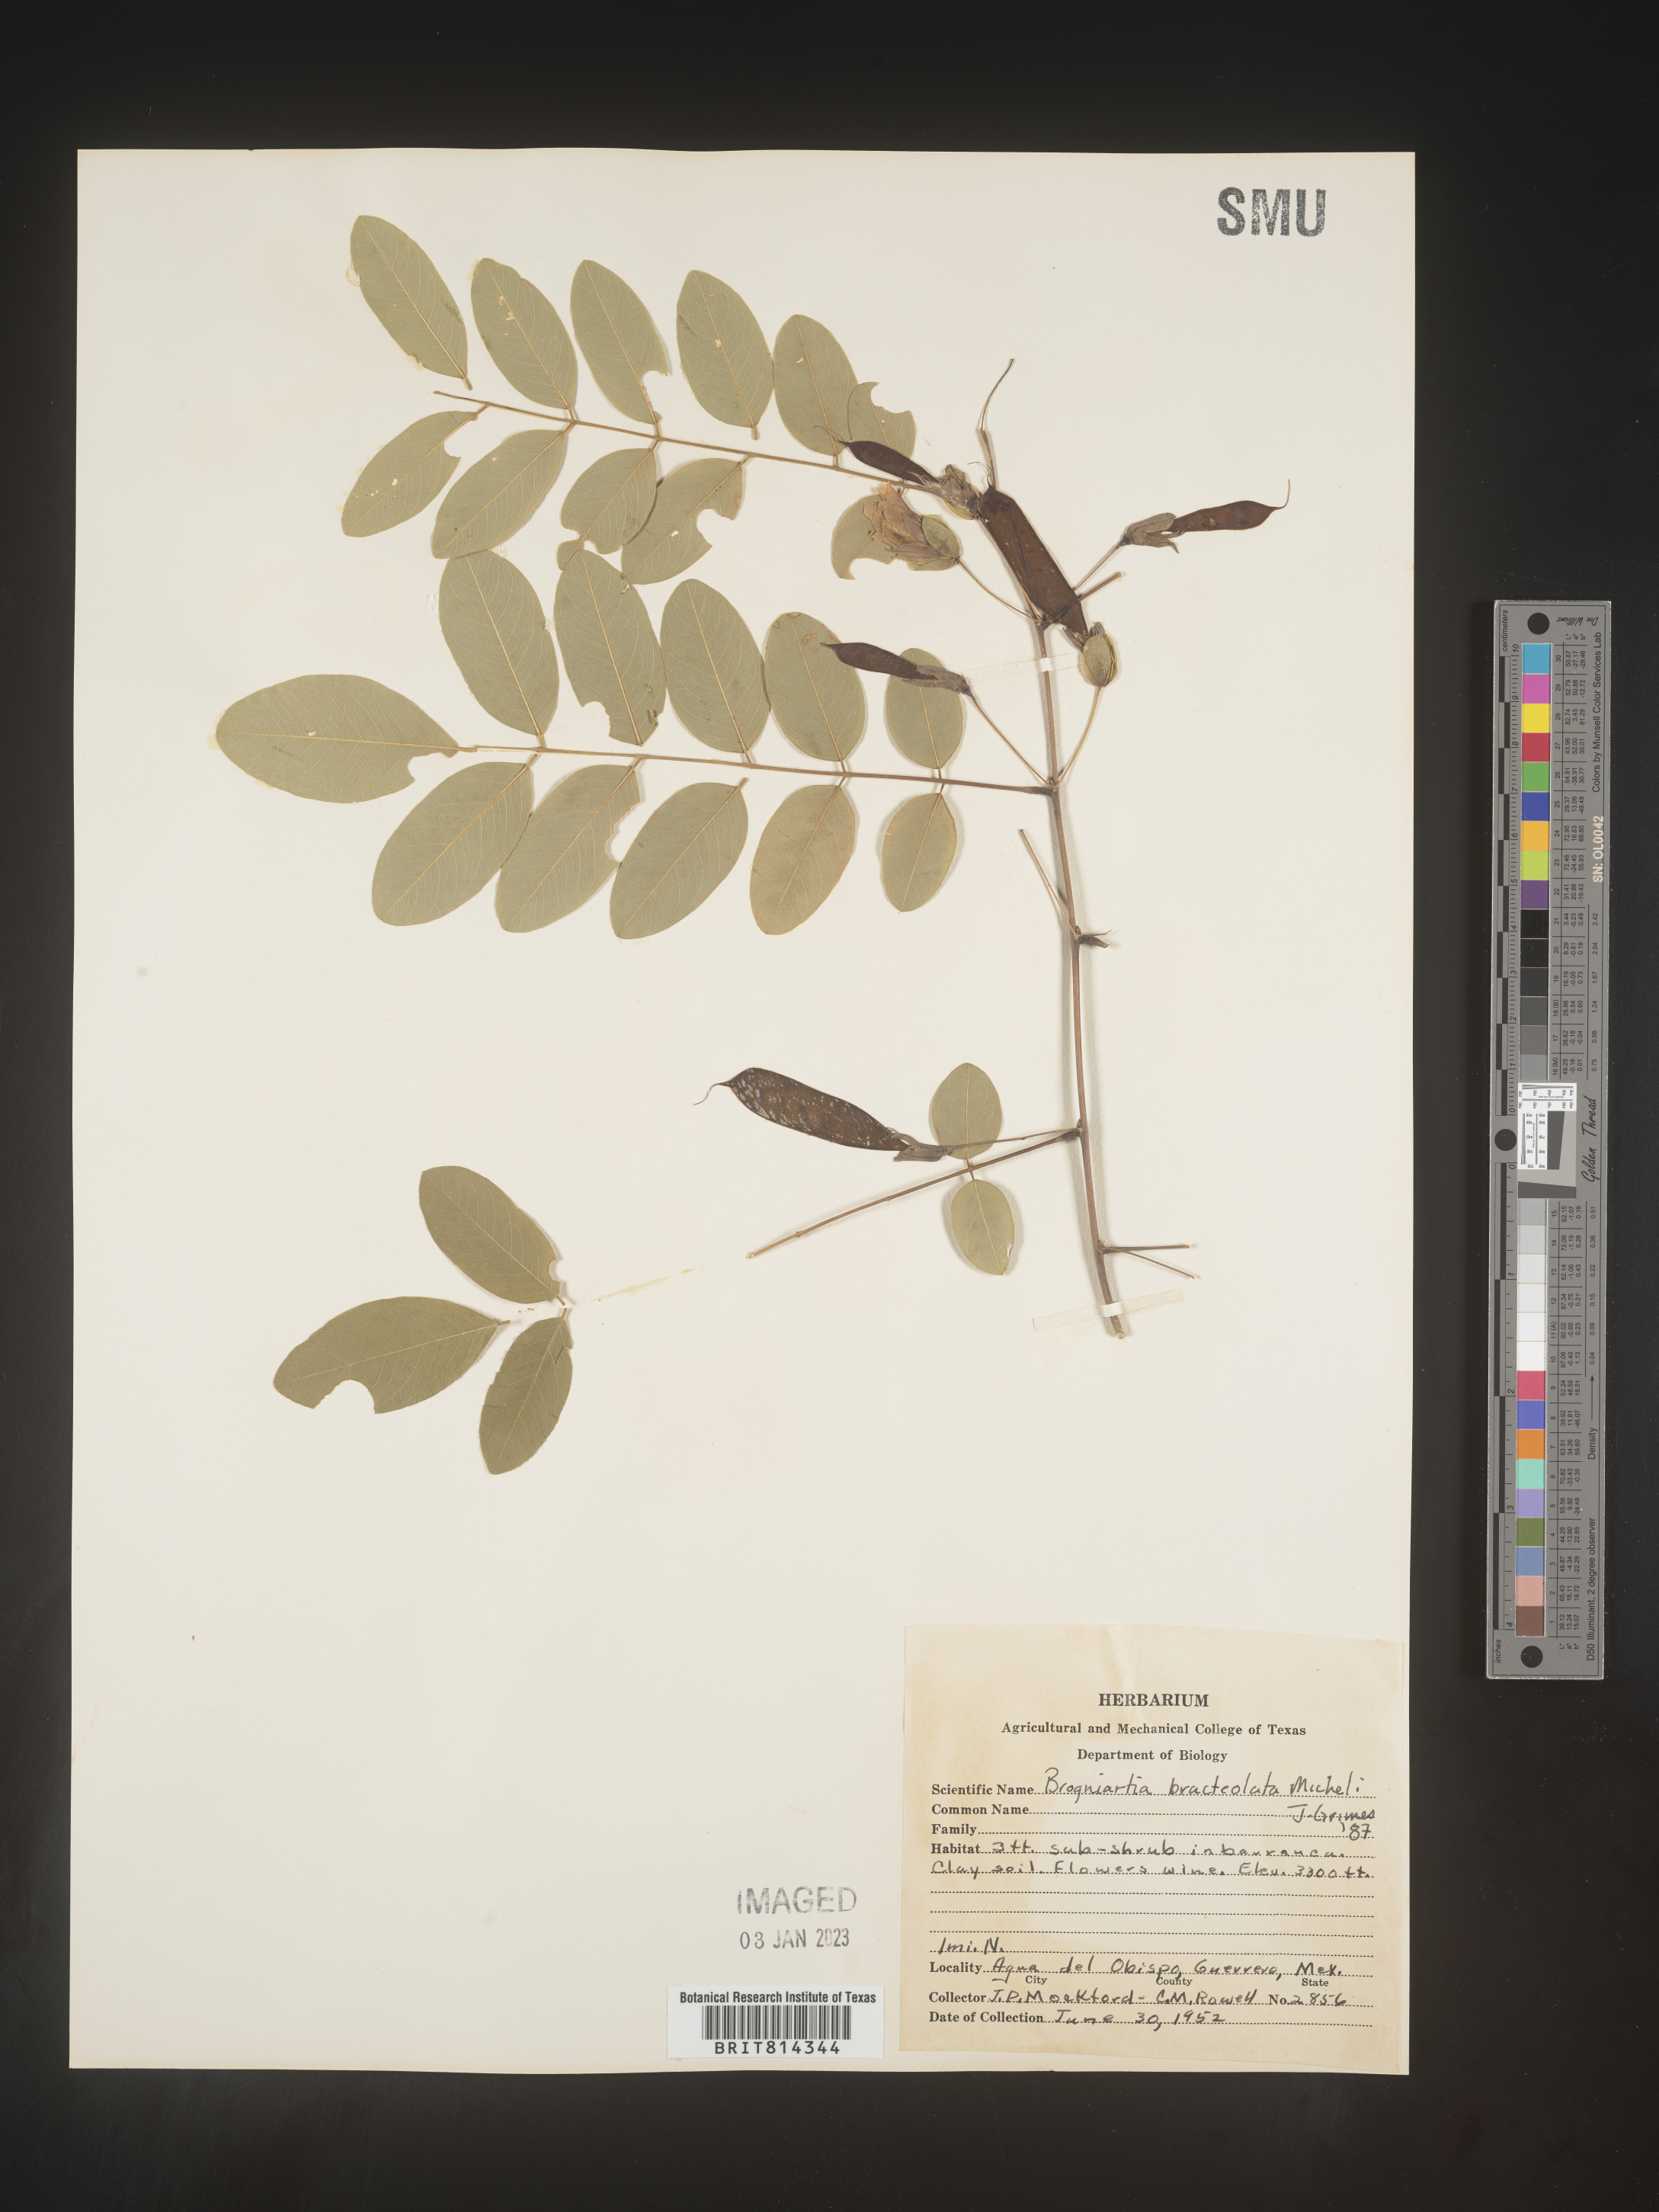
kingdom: Plantae
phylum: Tracheophyta
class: Magnoliopsida
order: Fabales
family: Fabaceae
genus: Brongniartia
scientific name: Brongniartia
